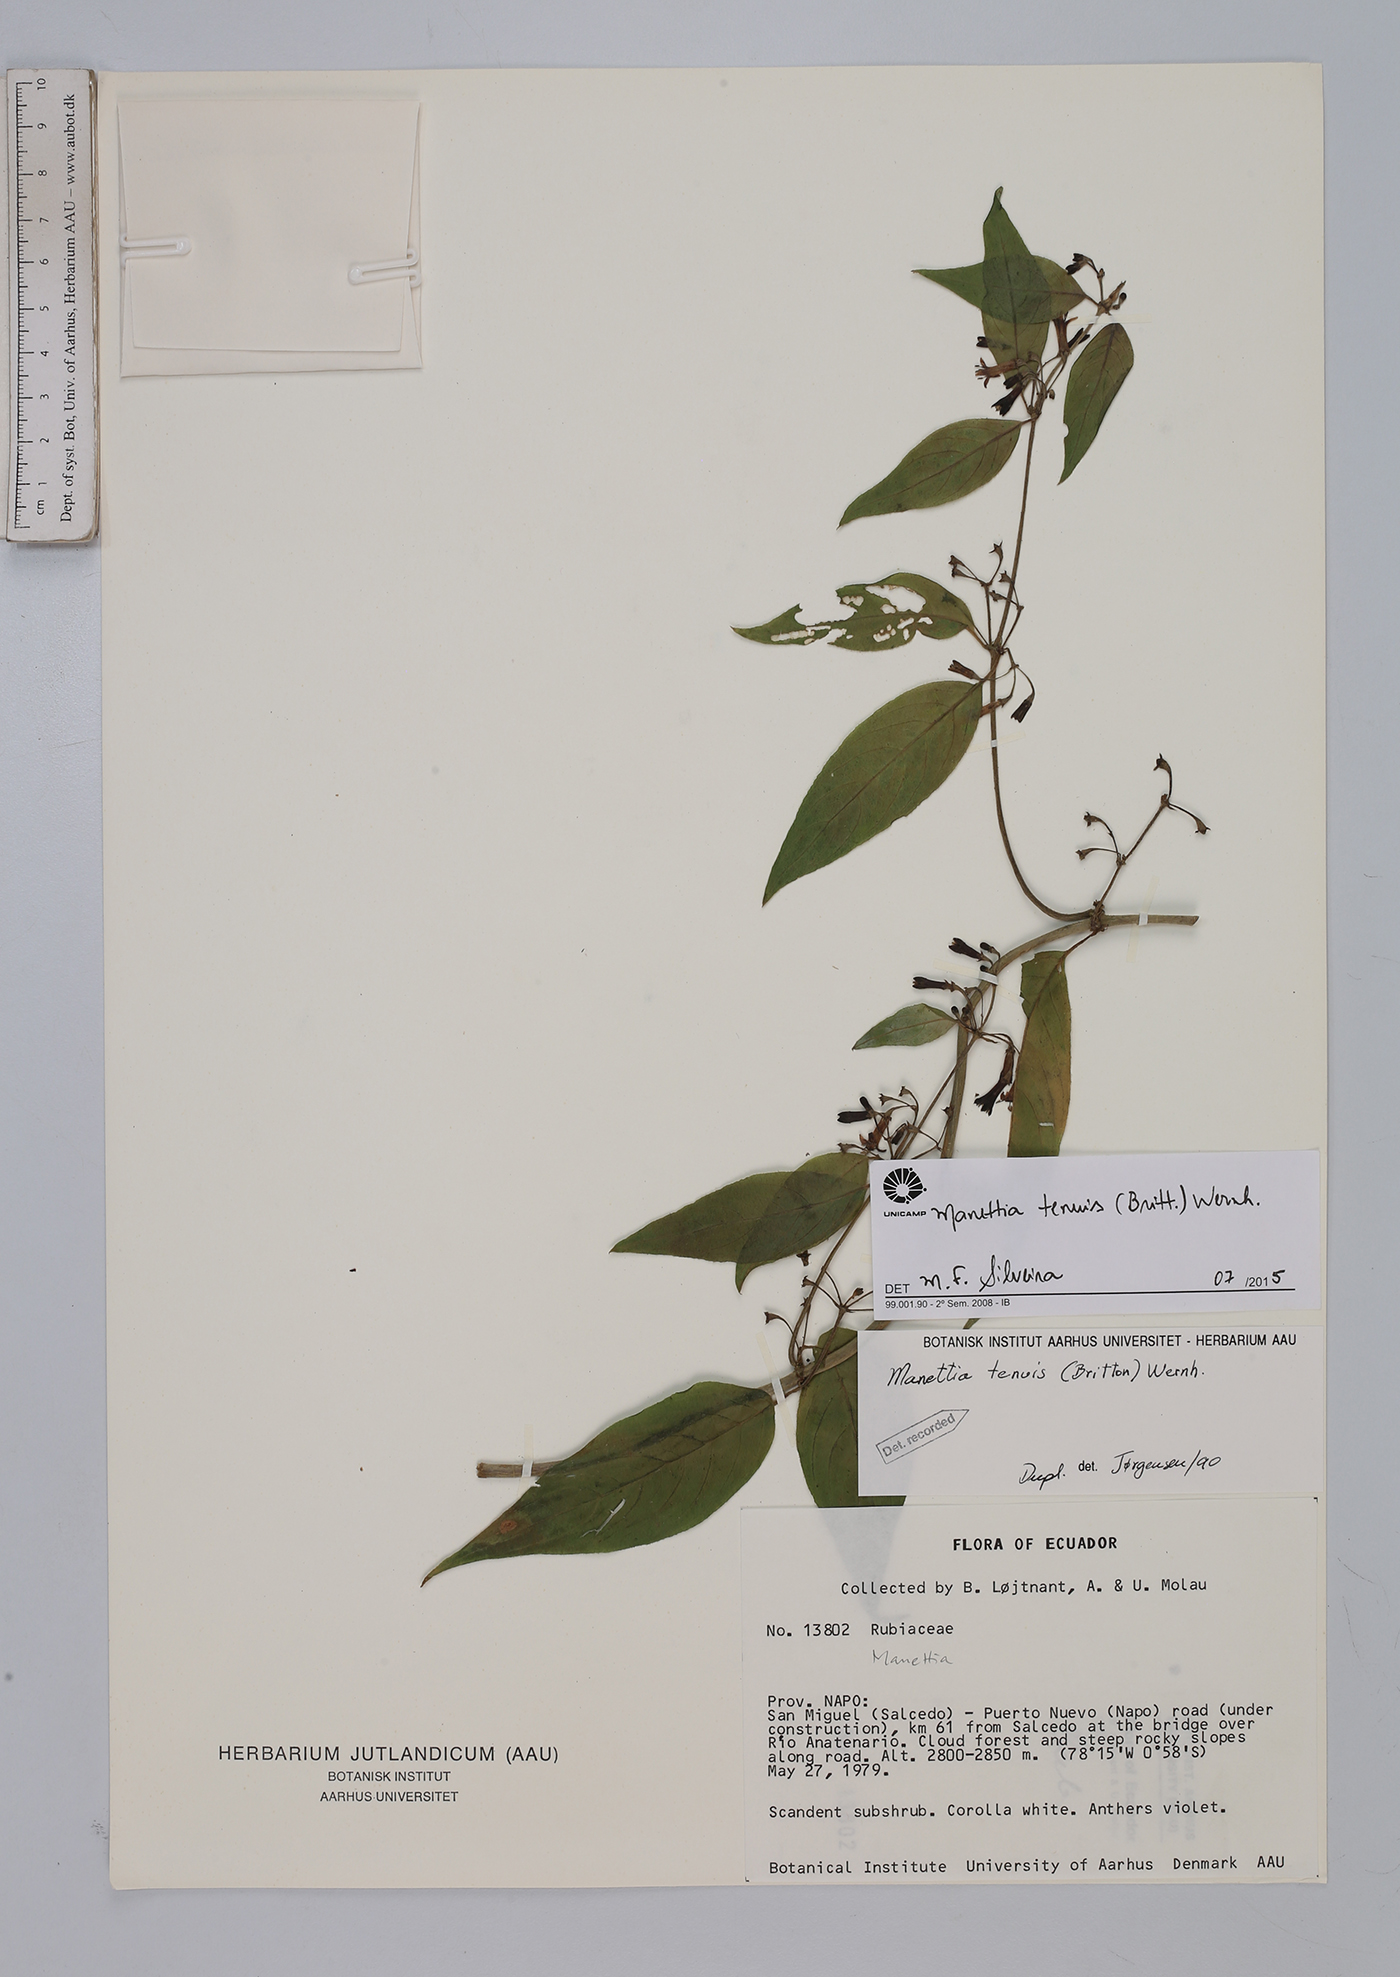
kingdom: Plantae
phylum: Tracheophyta
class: Magnoliopsida
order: Gentianales
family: Rubiaceae
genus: Manettia
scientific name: Manettia tenuis
